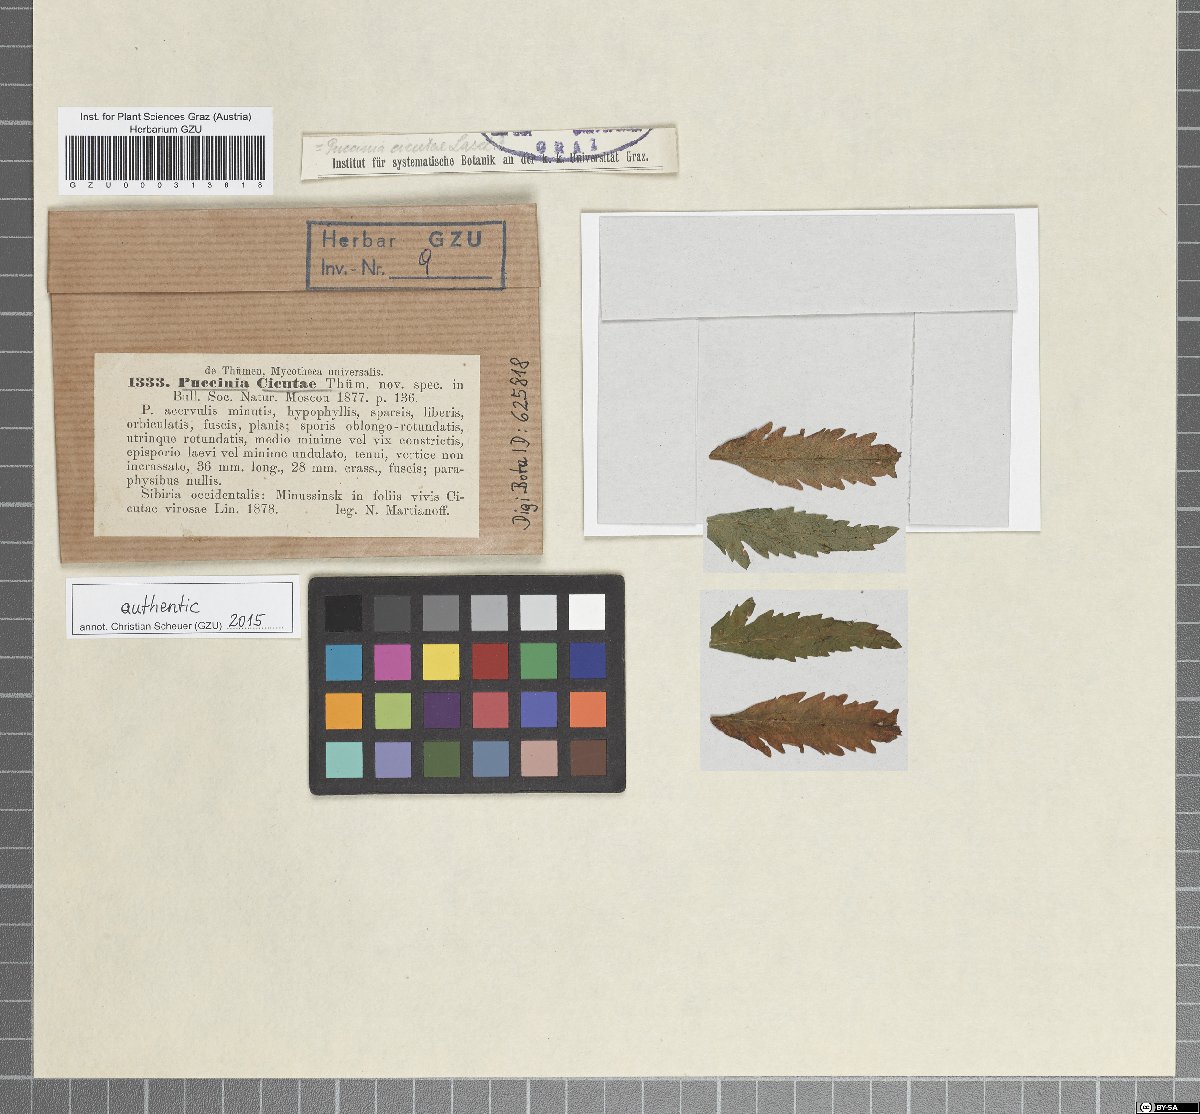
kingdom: Fungi
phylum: Basidiomycota
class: Pucciniomycetes
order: Pucciniales
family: Pucciniaceae
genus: Puccinia
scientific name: Puccinia cicutae
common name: Cowbane rust
